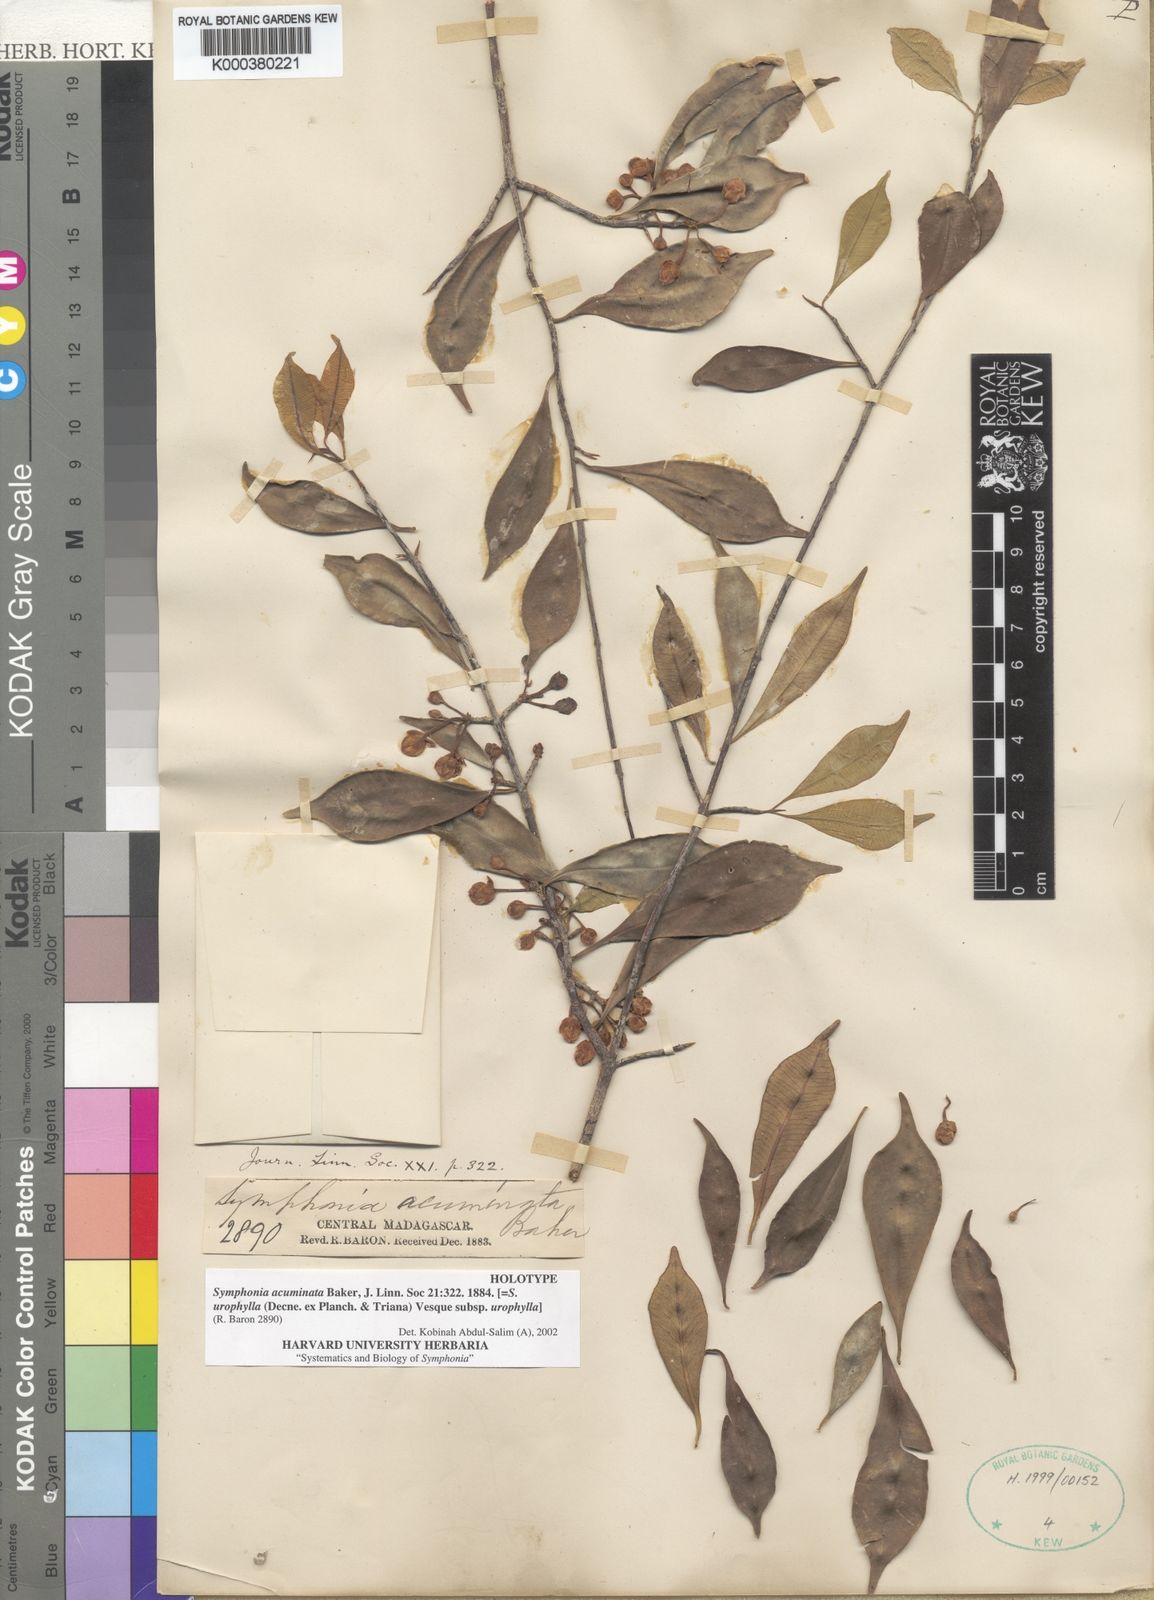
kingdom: Plantae
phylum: Tracheophyta
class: Magnoliopsida
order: Malpighiales
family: Clusiaceae
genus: Symphonia
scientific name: Symphonia urophylla
